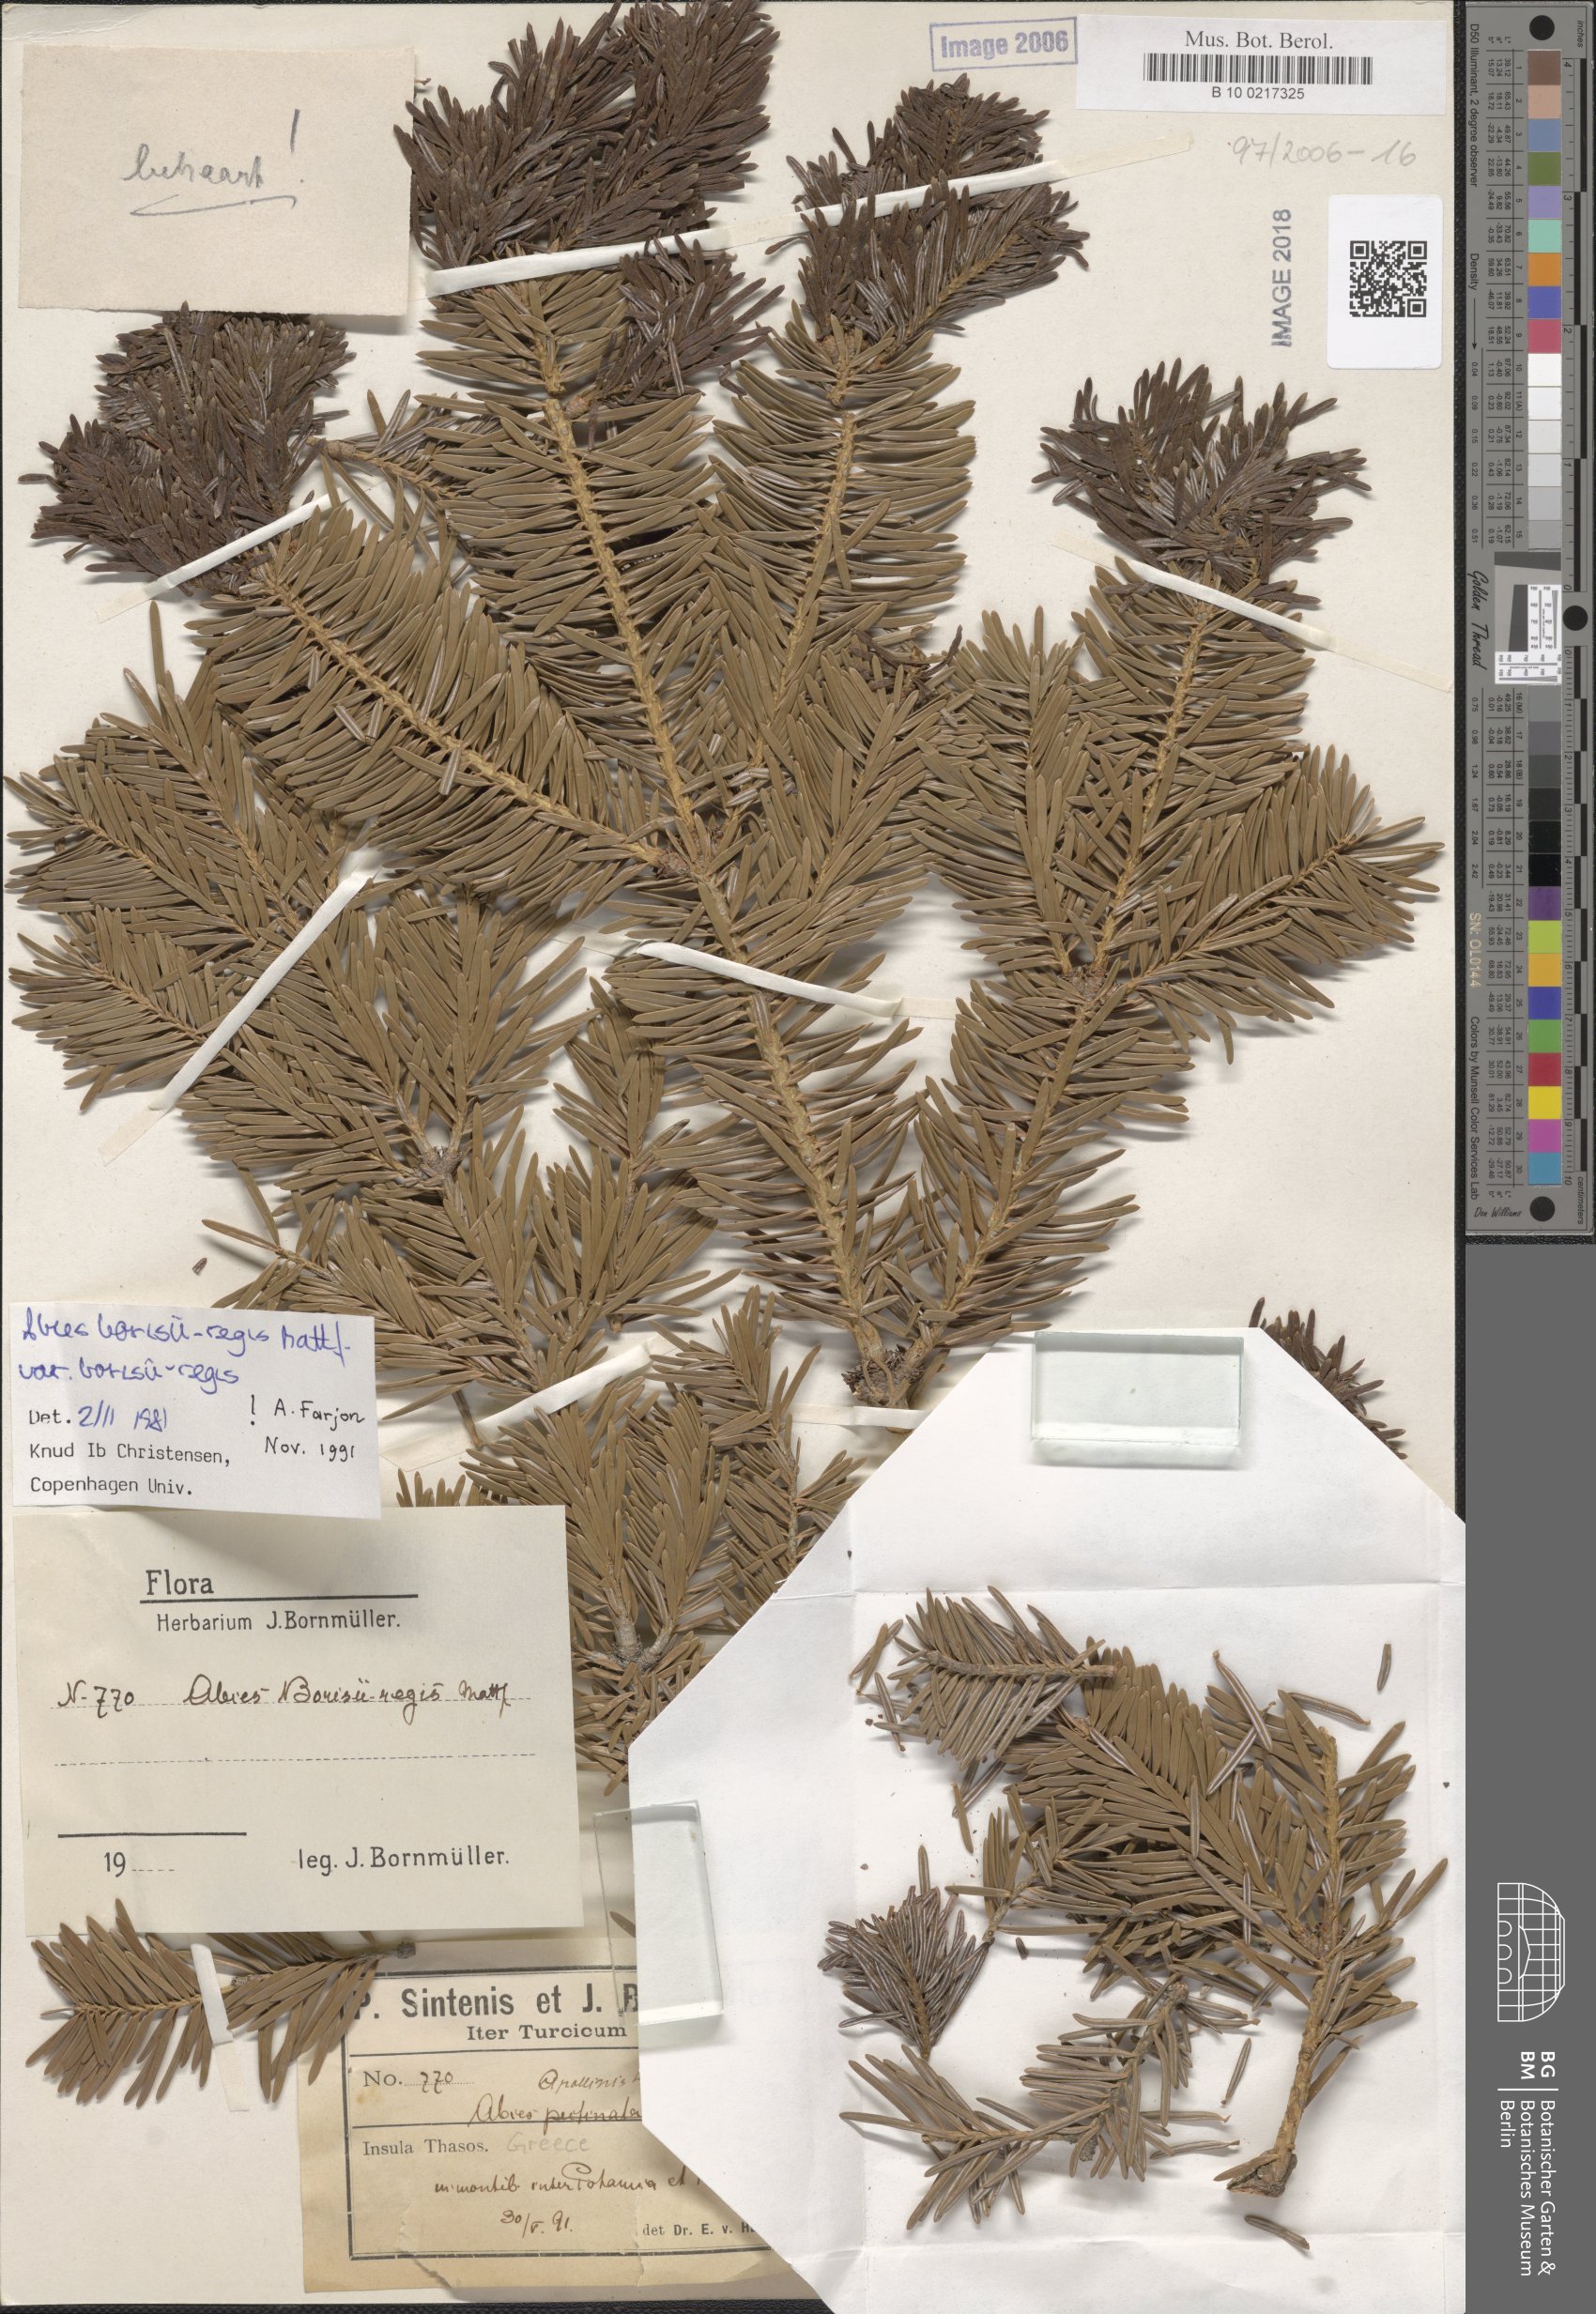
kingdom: Plantae
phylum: Tracheophyta
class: Pinopsida
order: Pinales
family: Pinaceae
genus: Abies
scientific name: Abies borisii-regis
